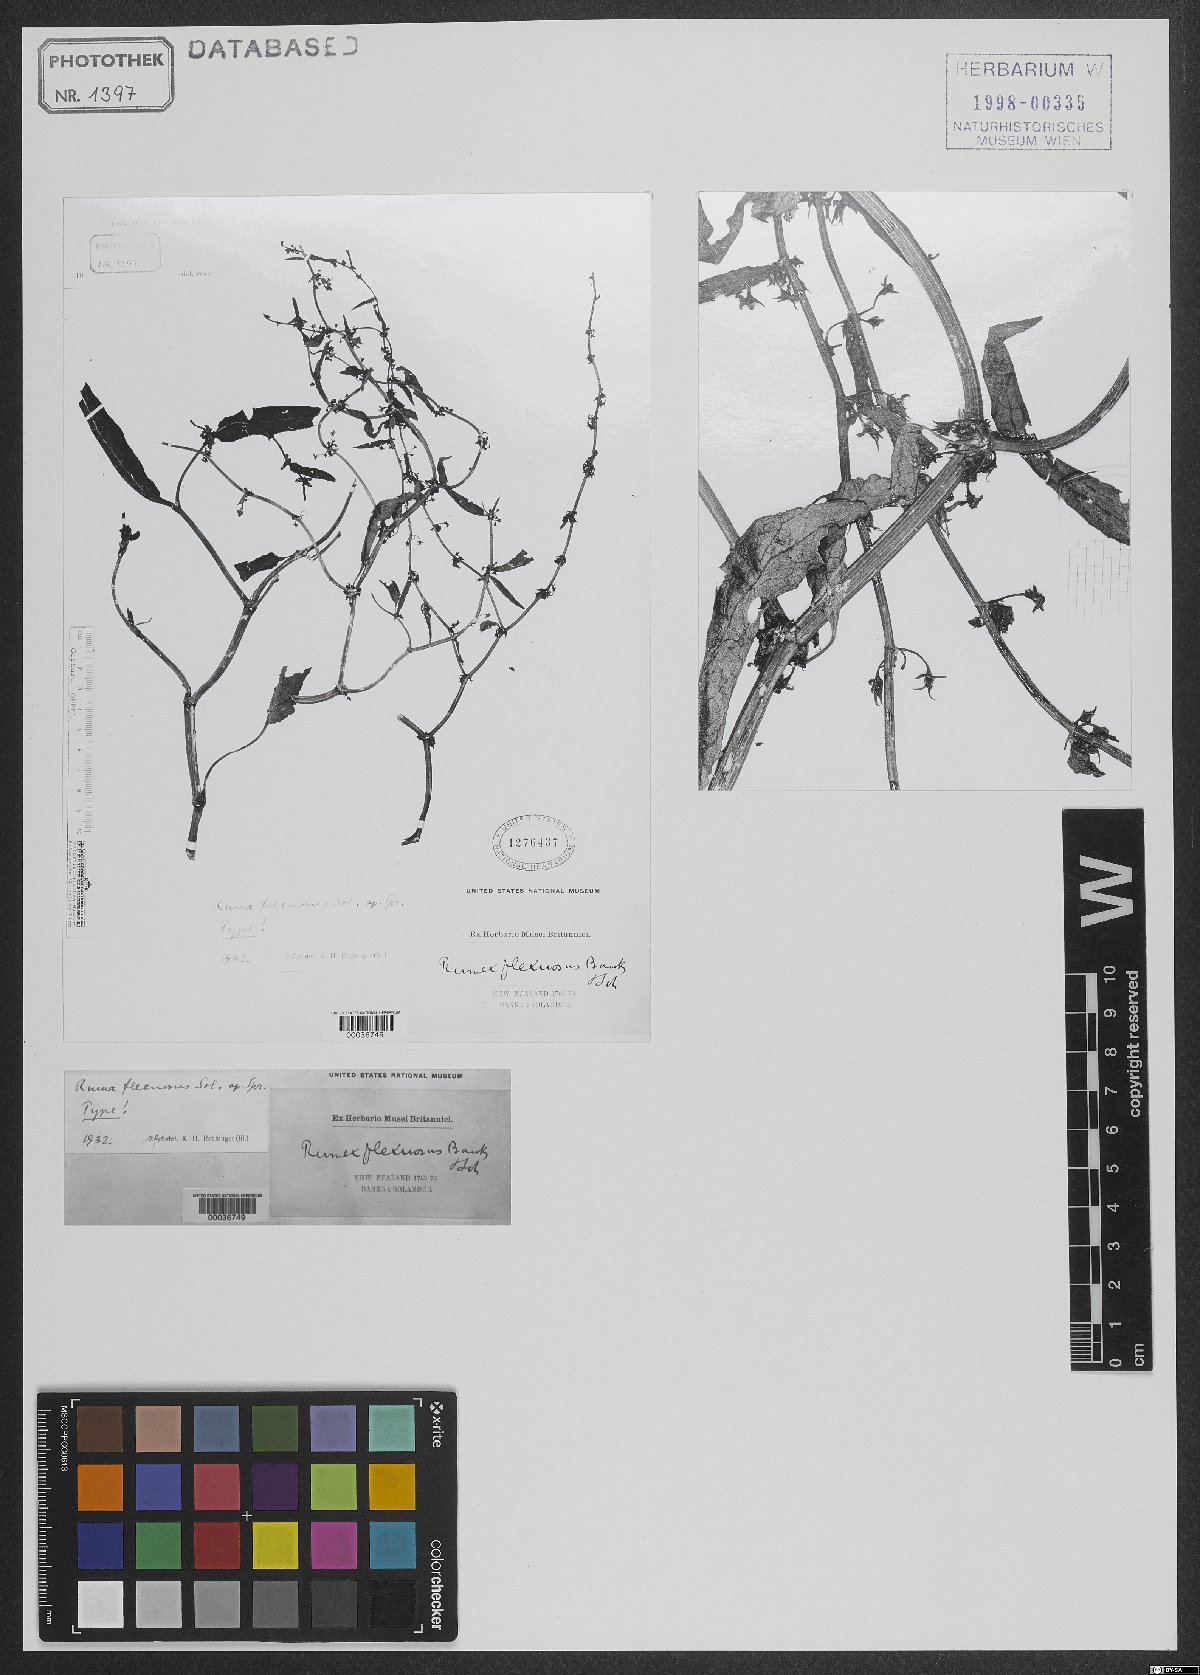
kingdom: Plantae
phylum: Tracheophyta
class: Magnoliopsida
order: Caryophyllales
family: Polygonaceae
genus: Rumex
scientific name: Rumex flexuosus
